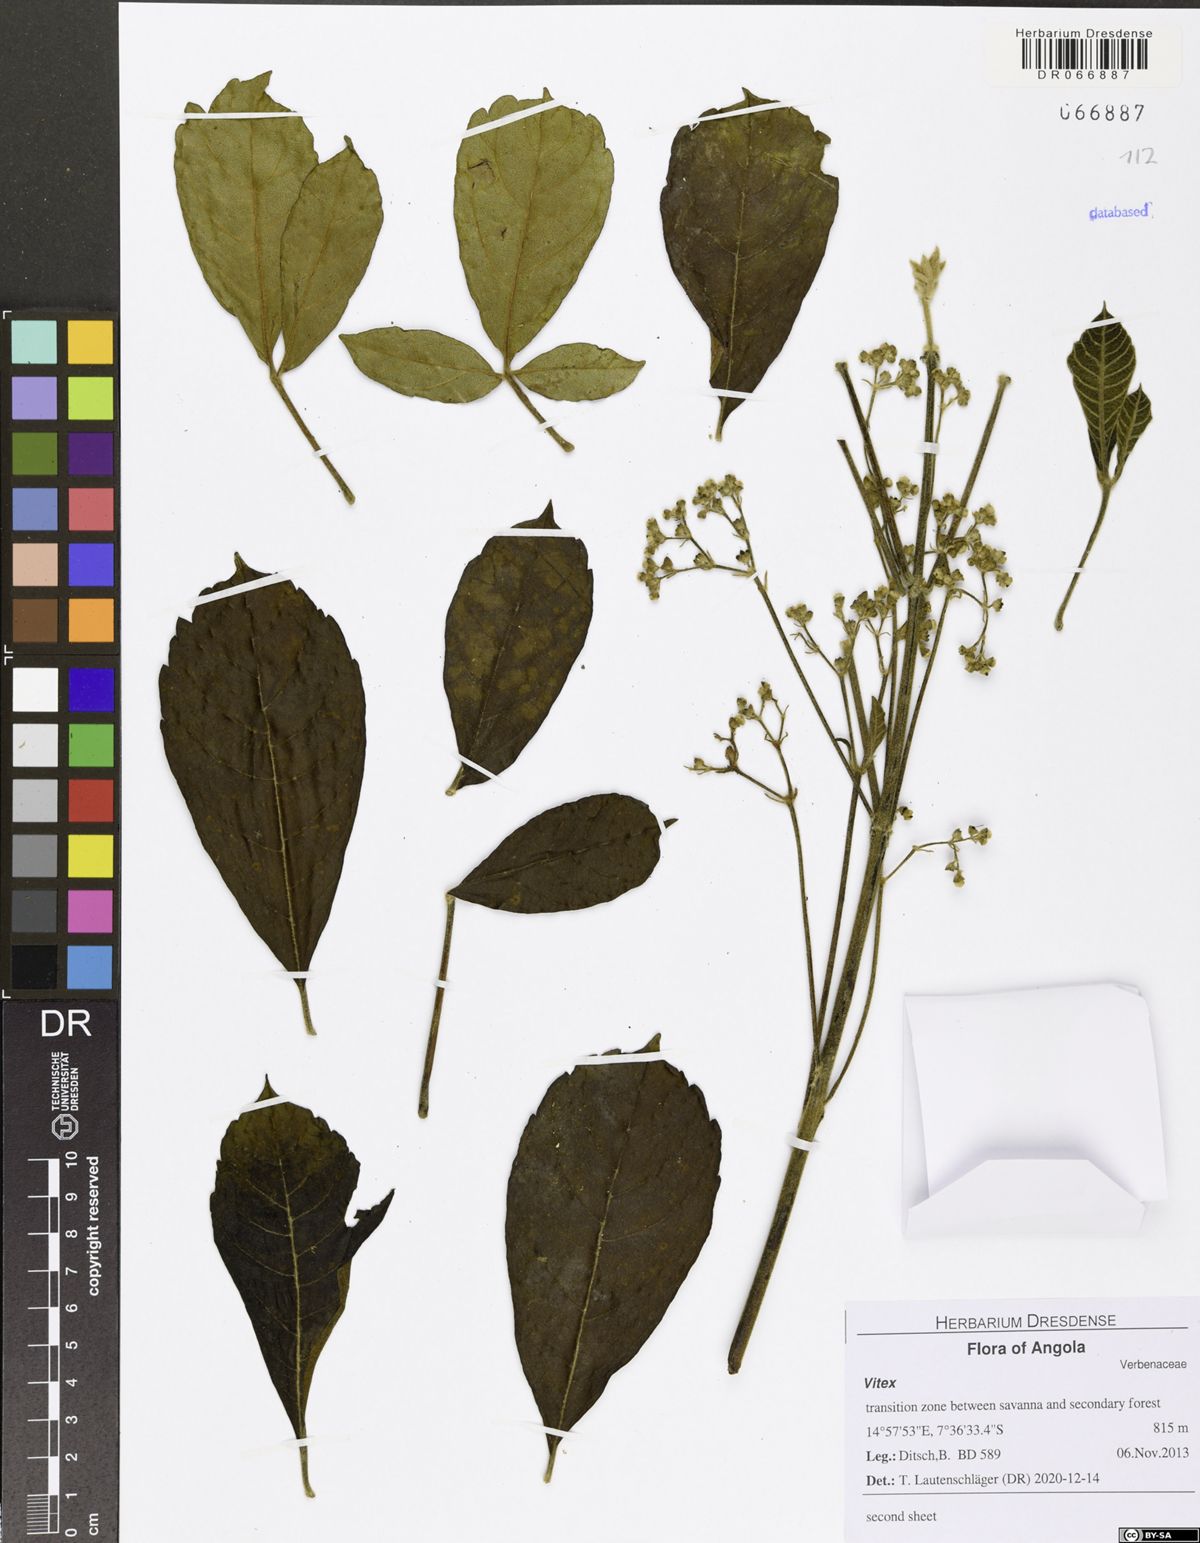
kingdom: Plantae
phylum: Tracheophyta
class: Magnoliopsida
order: Lamiales
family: Lamiaceae
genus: Vitex
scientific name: Vitex madiensis
